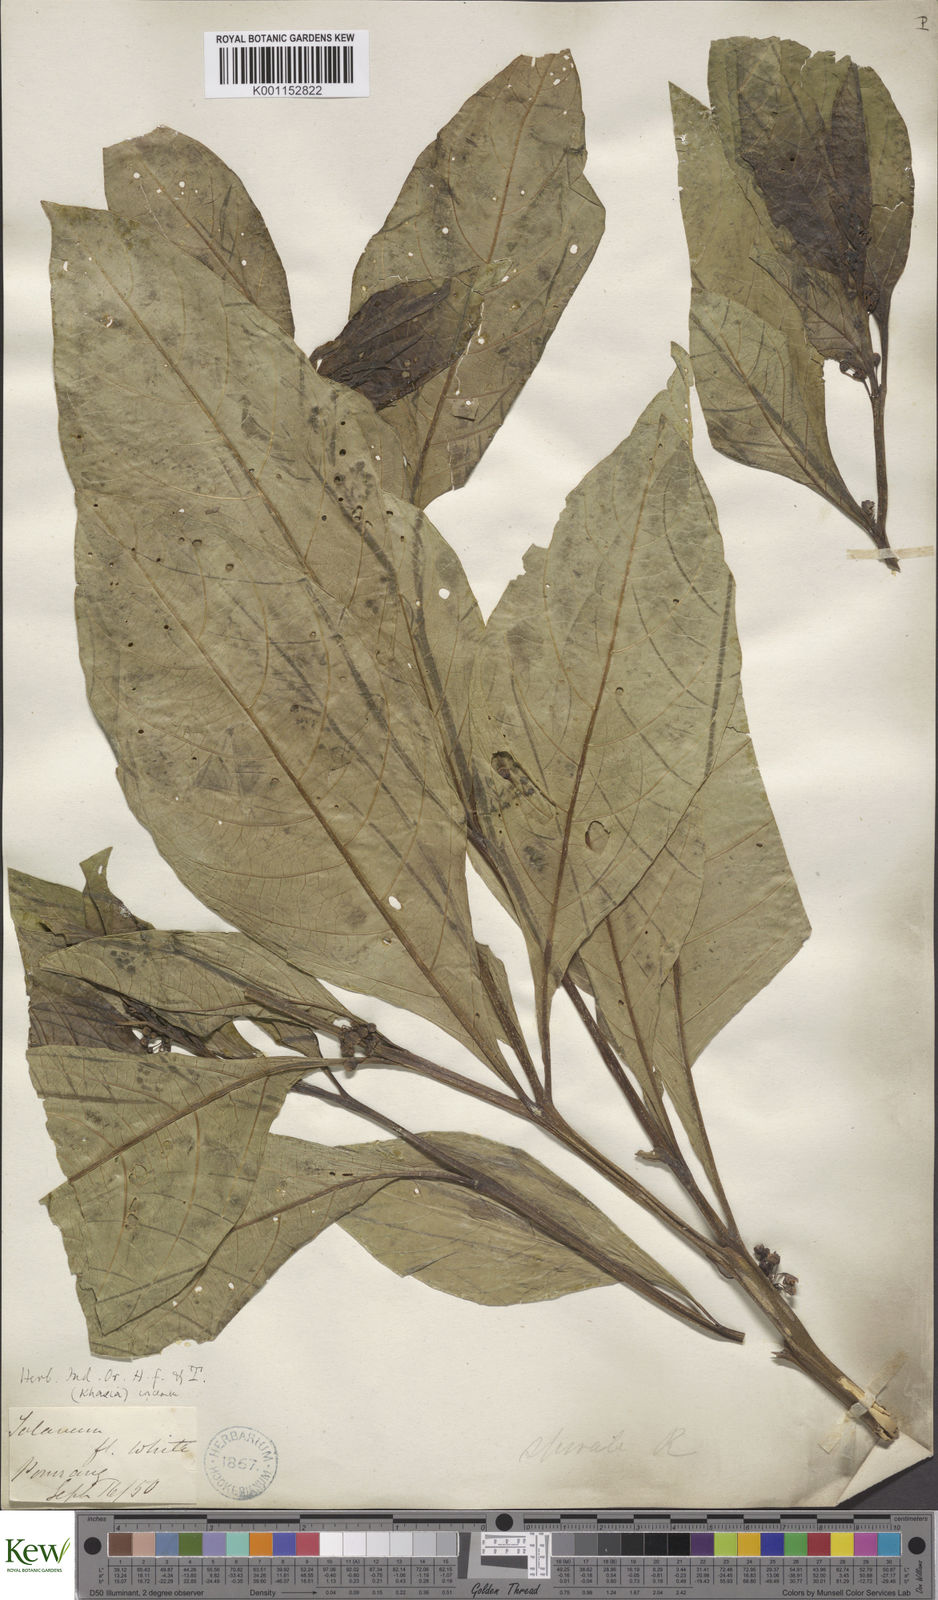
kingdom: Plantae
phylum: Tracheophyta
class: Magnoliopsida
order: Solanales
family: Solanaceae
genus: Solanum
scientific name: Solanum spirale
